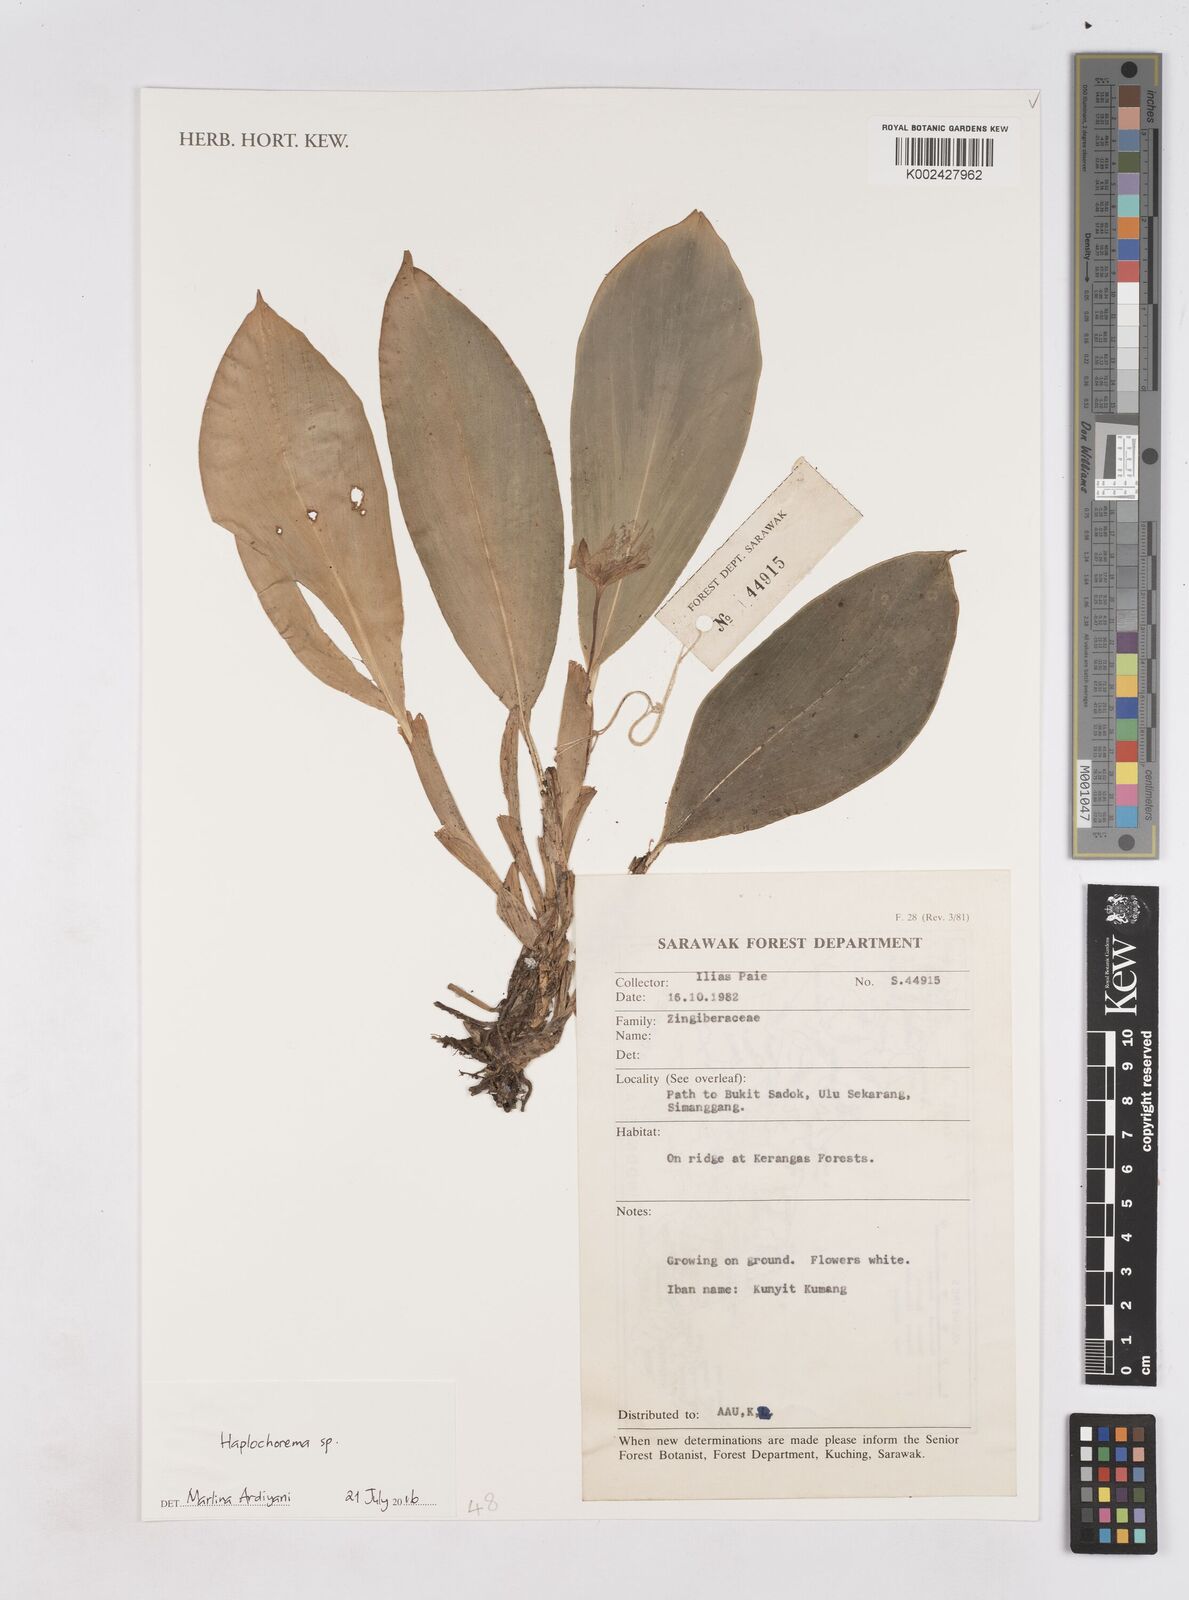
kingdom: Plantae
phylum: Tracheophyta
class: Liliopsida
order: Zingiberales
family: Zingiberaceae
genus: Boesenbergia
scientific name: Boesenbergia
